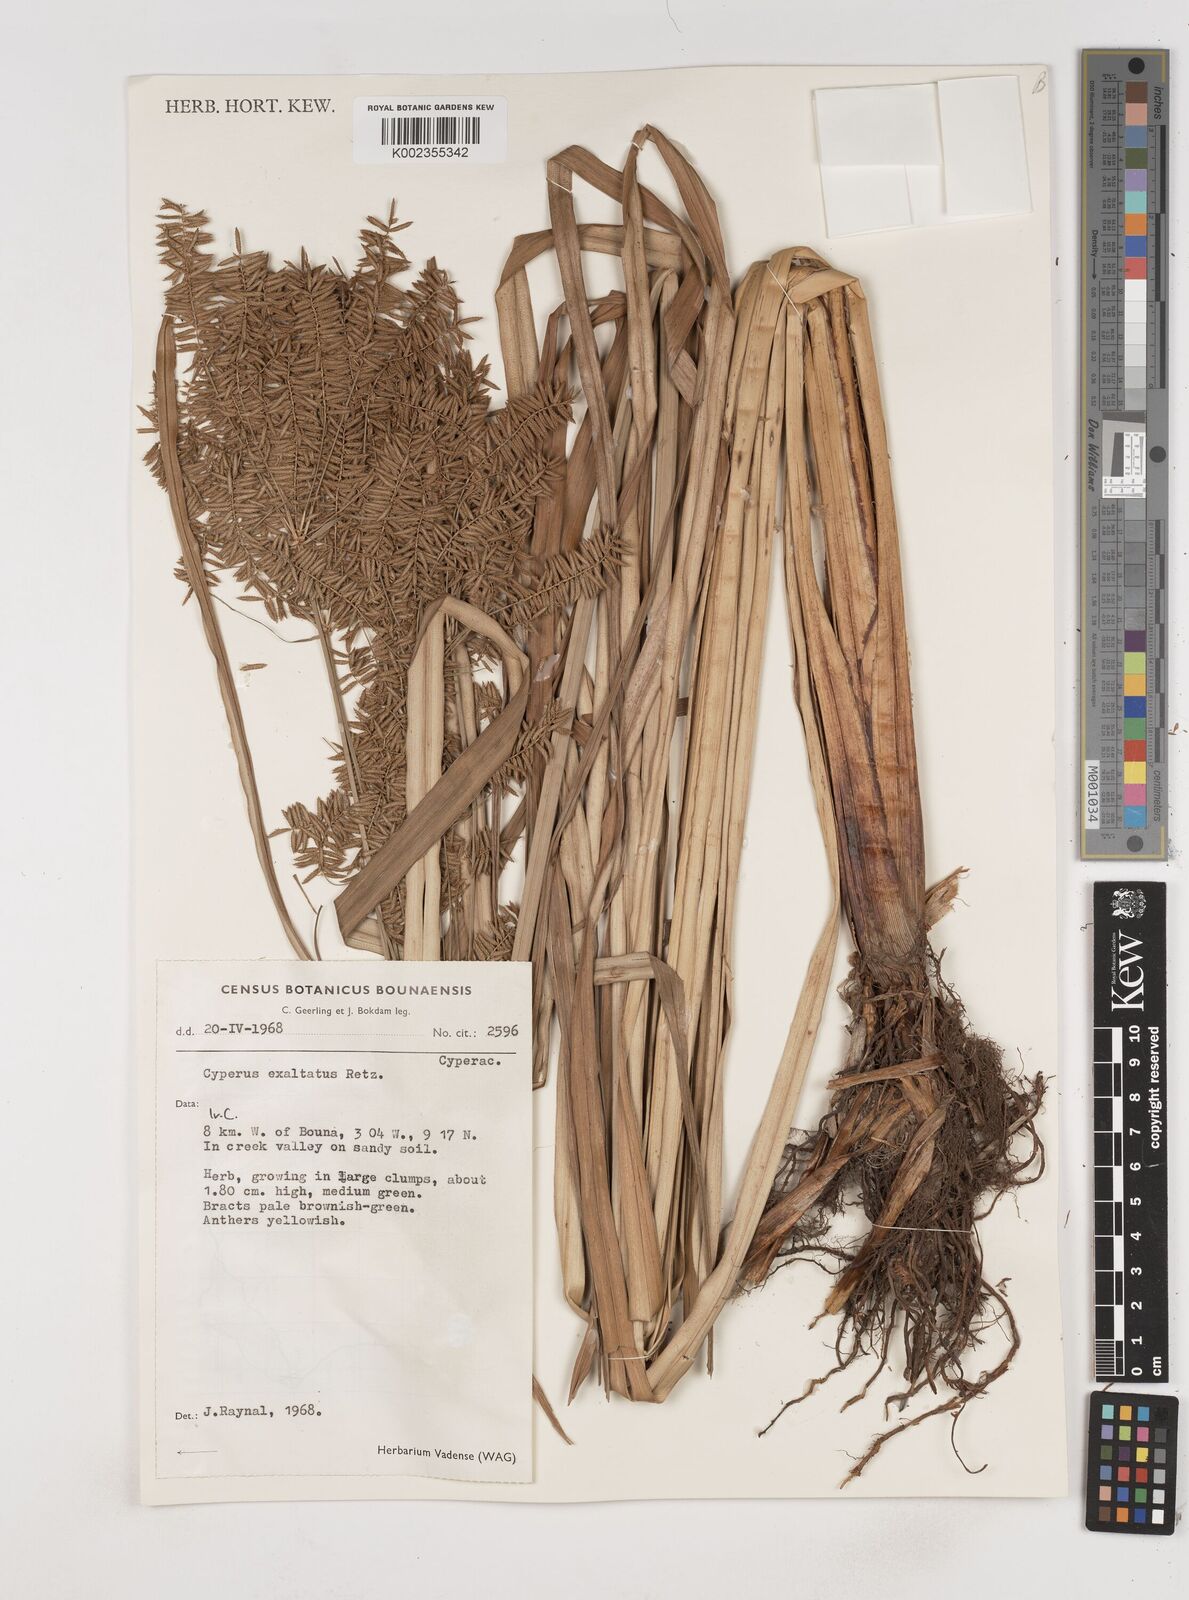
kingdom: Plantae
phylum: Tracheophyta
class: Liliopsida
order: Poales
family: Cyperaceae
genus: Cyperus
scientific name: Cyperus exaltatus
